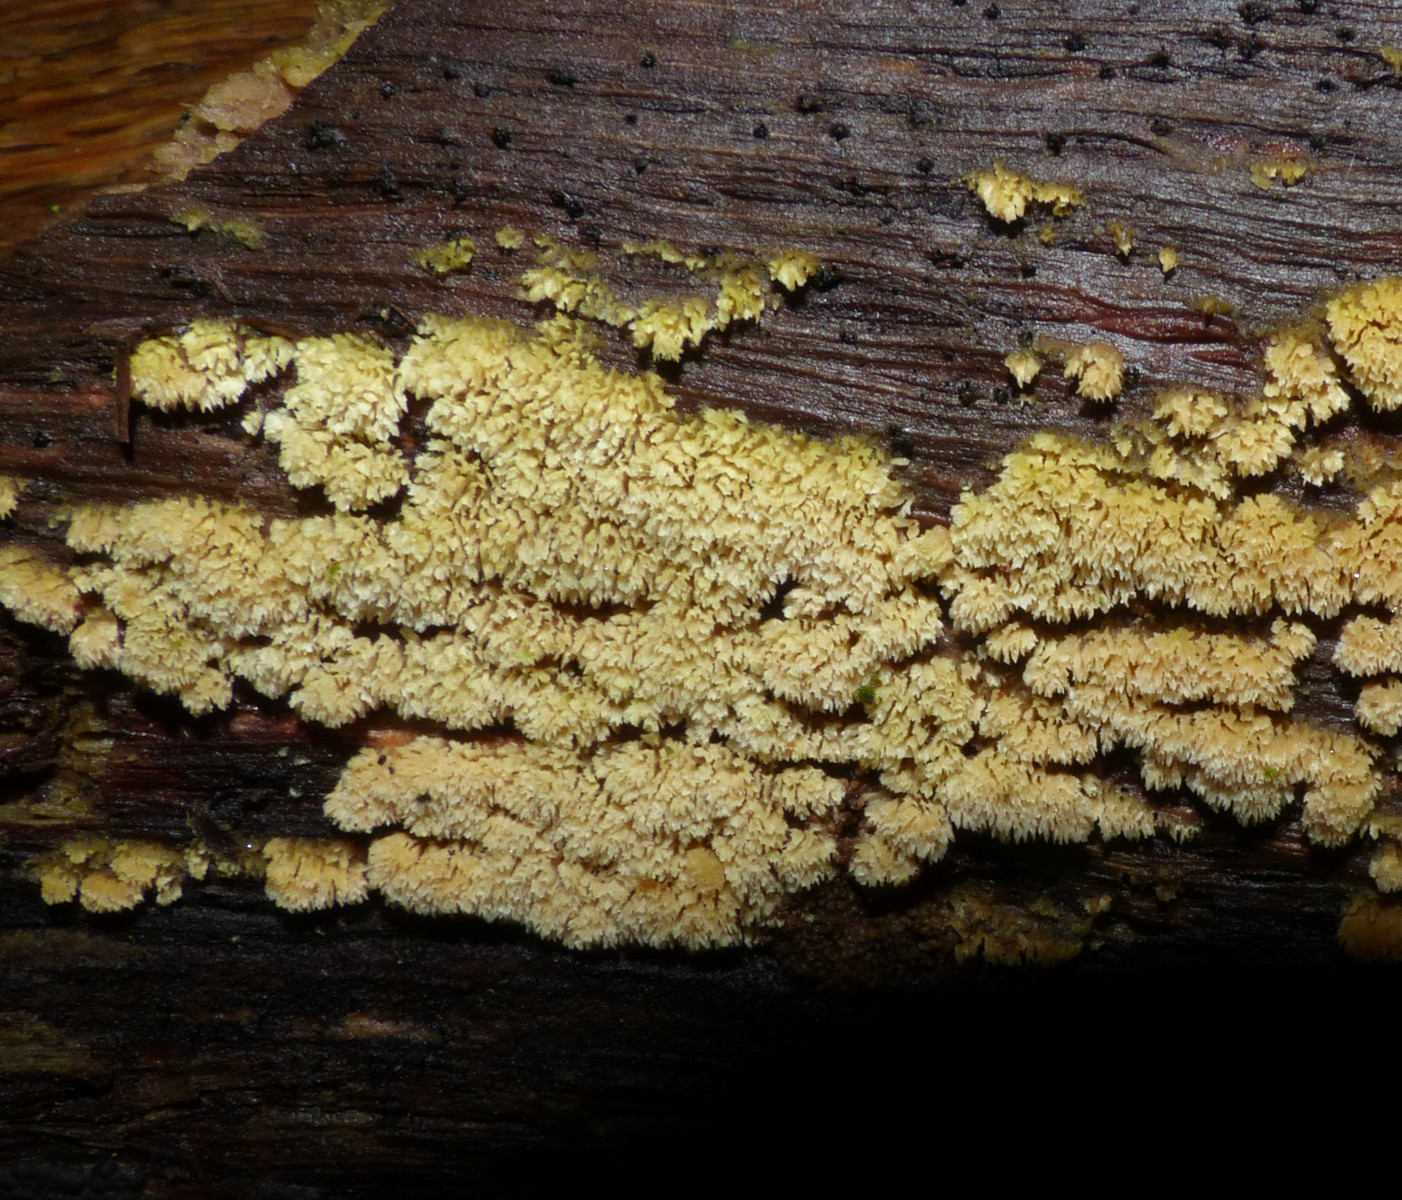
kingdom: Fungi
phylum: Basidiomycota
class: Agaricomycetes
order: Hymenochaetales
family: Schizoporaceae
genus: Schizopora
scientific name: Schizopora paradoxa
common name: hvid tandsvamp
